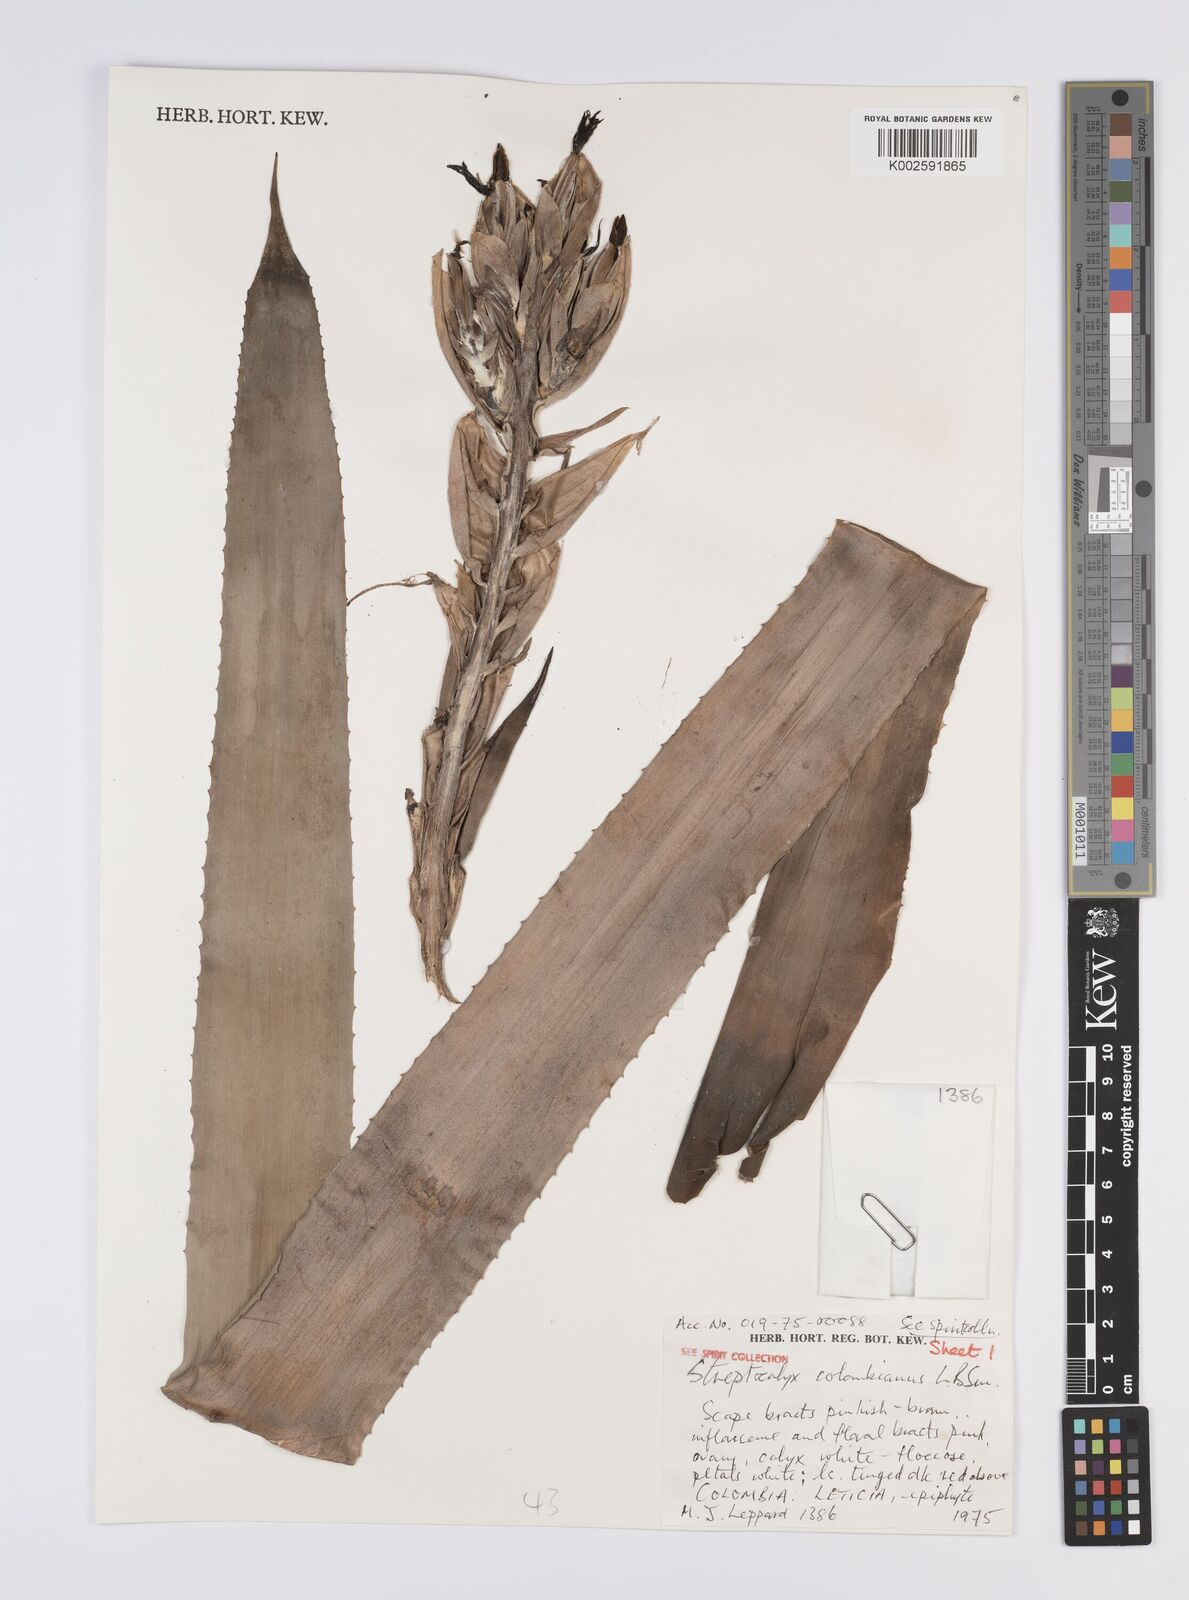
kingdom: Plantae
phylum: Tracheophyta
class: Liliopsida
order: Poales
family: Bromeliaceae
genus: Aechmea
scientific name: Aechmea colombiana
